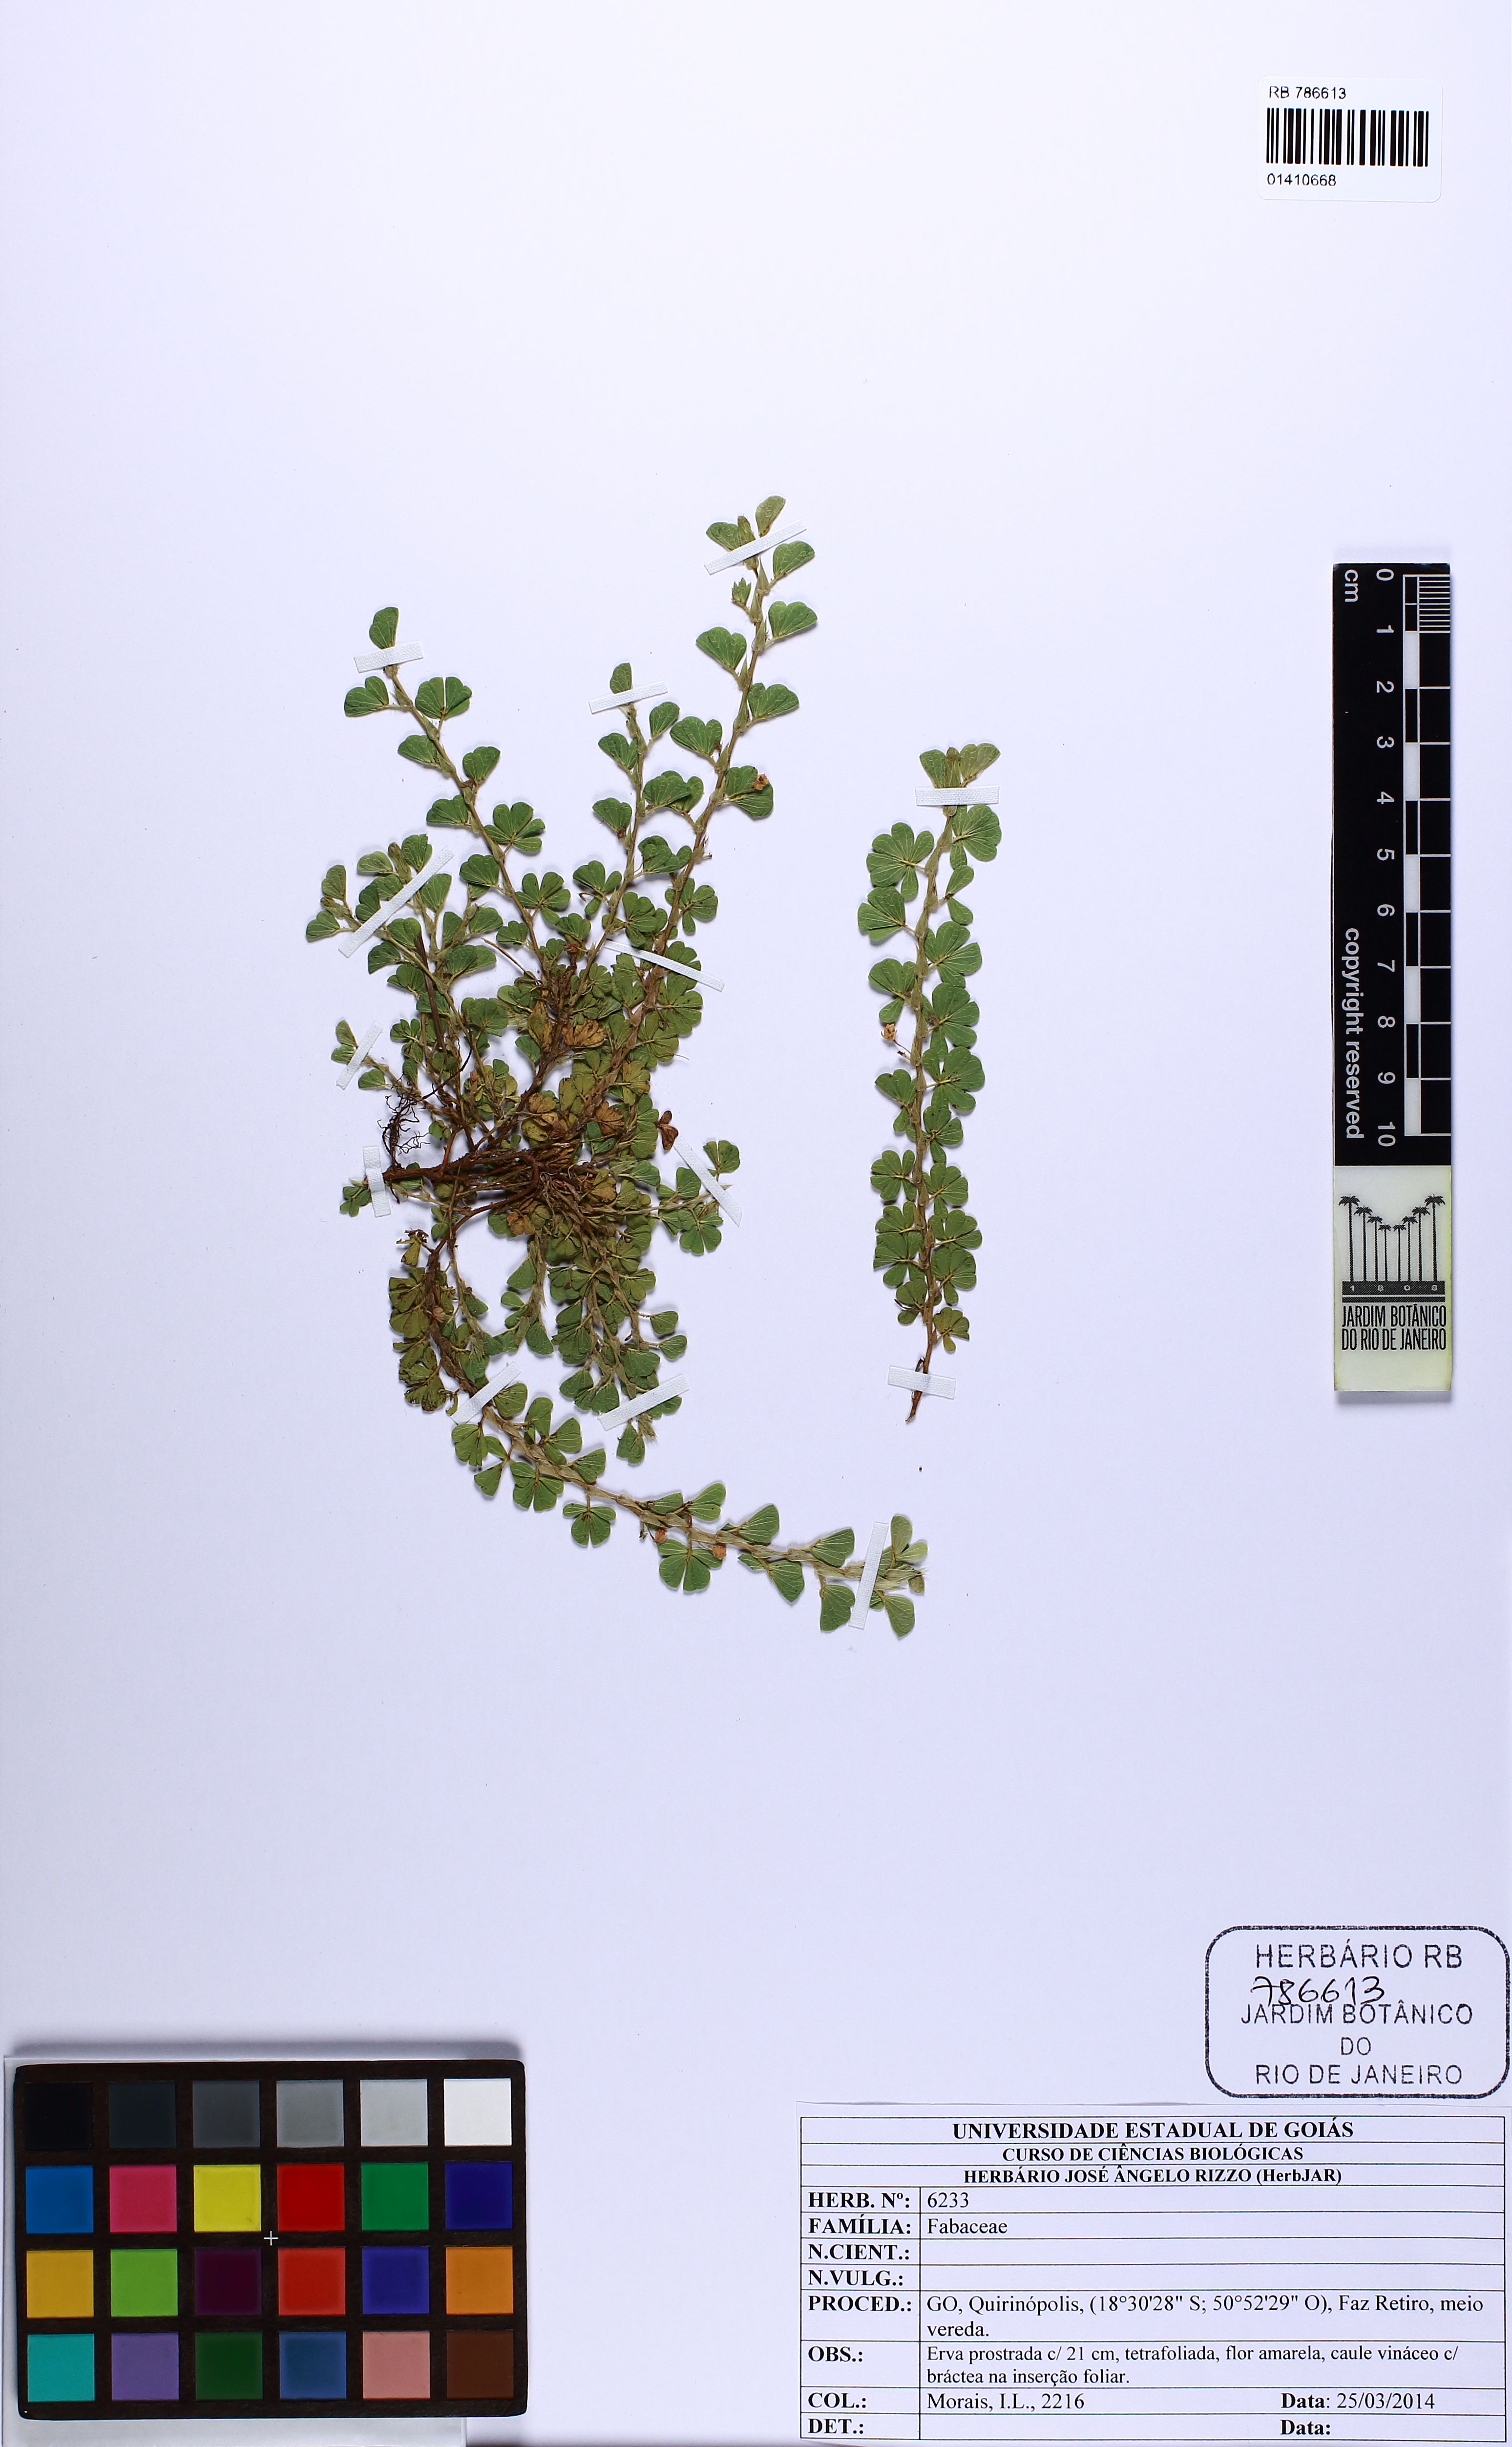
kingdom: Plantae
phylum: Tracheophyta
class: Magnoliopsida
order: Fabales
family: Fabaceae
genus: Chamaecrista
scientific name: Chamaecrista kunthiana
